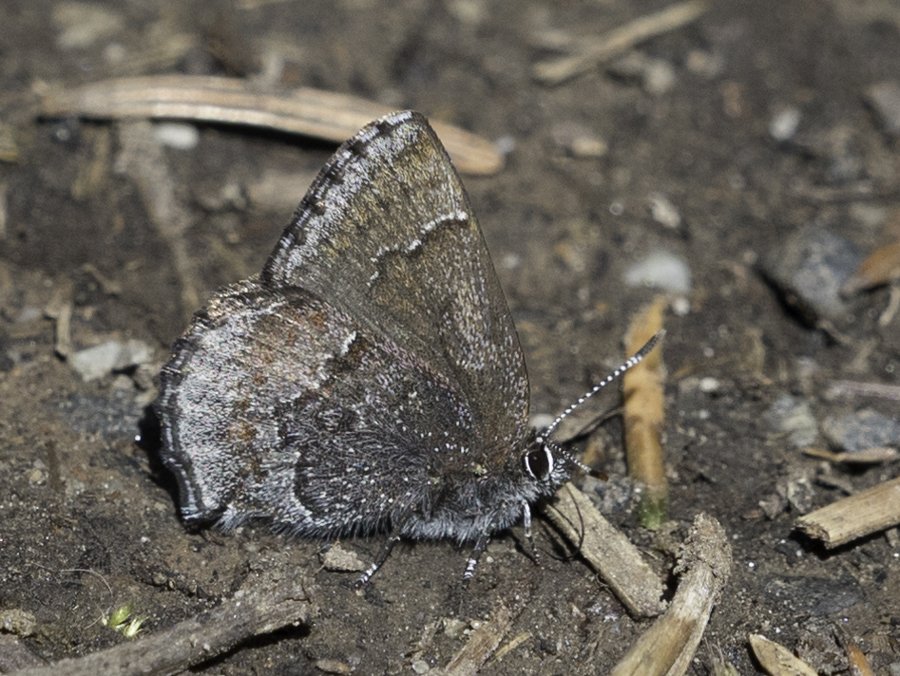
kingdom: Animalia
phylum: Arthropoda
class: Insecta
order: Lepidoptera
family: Lycaenidae
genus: Callophrys
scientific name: Callophrys polios
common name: Hoary Elfin
